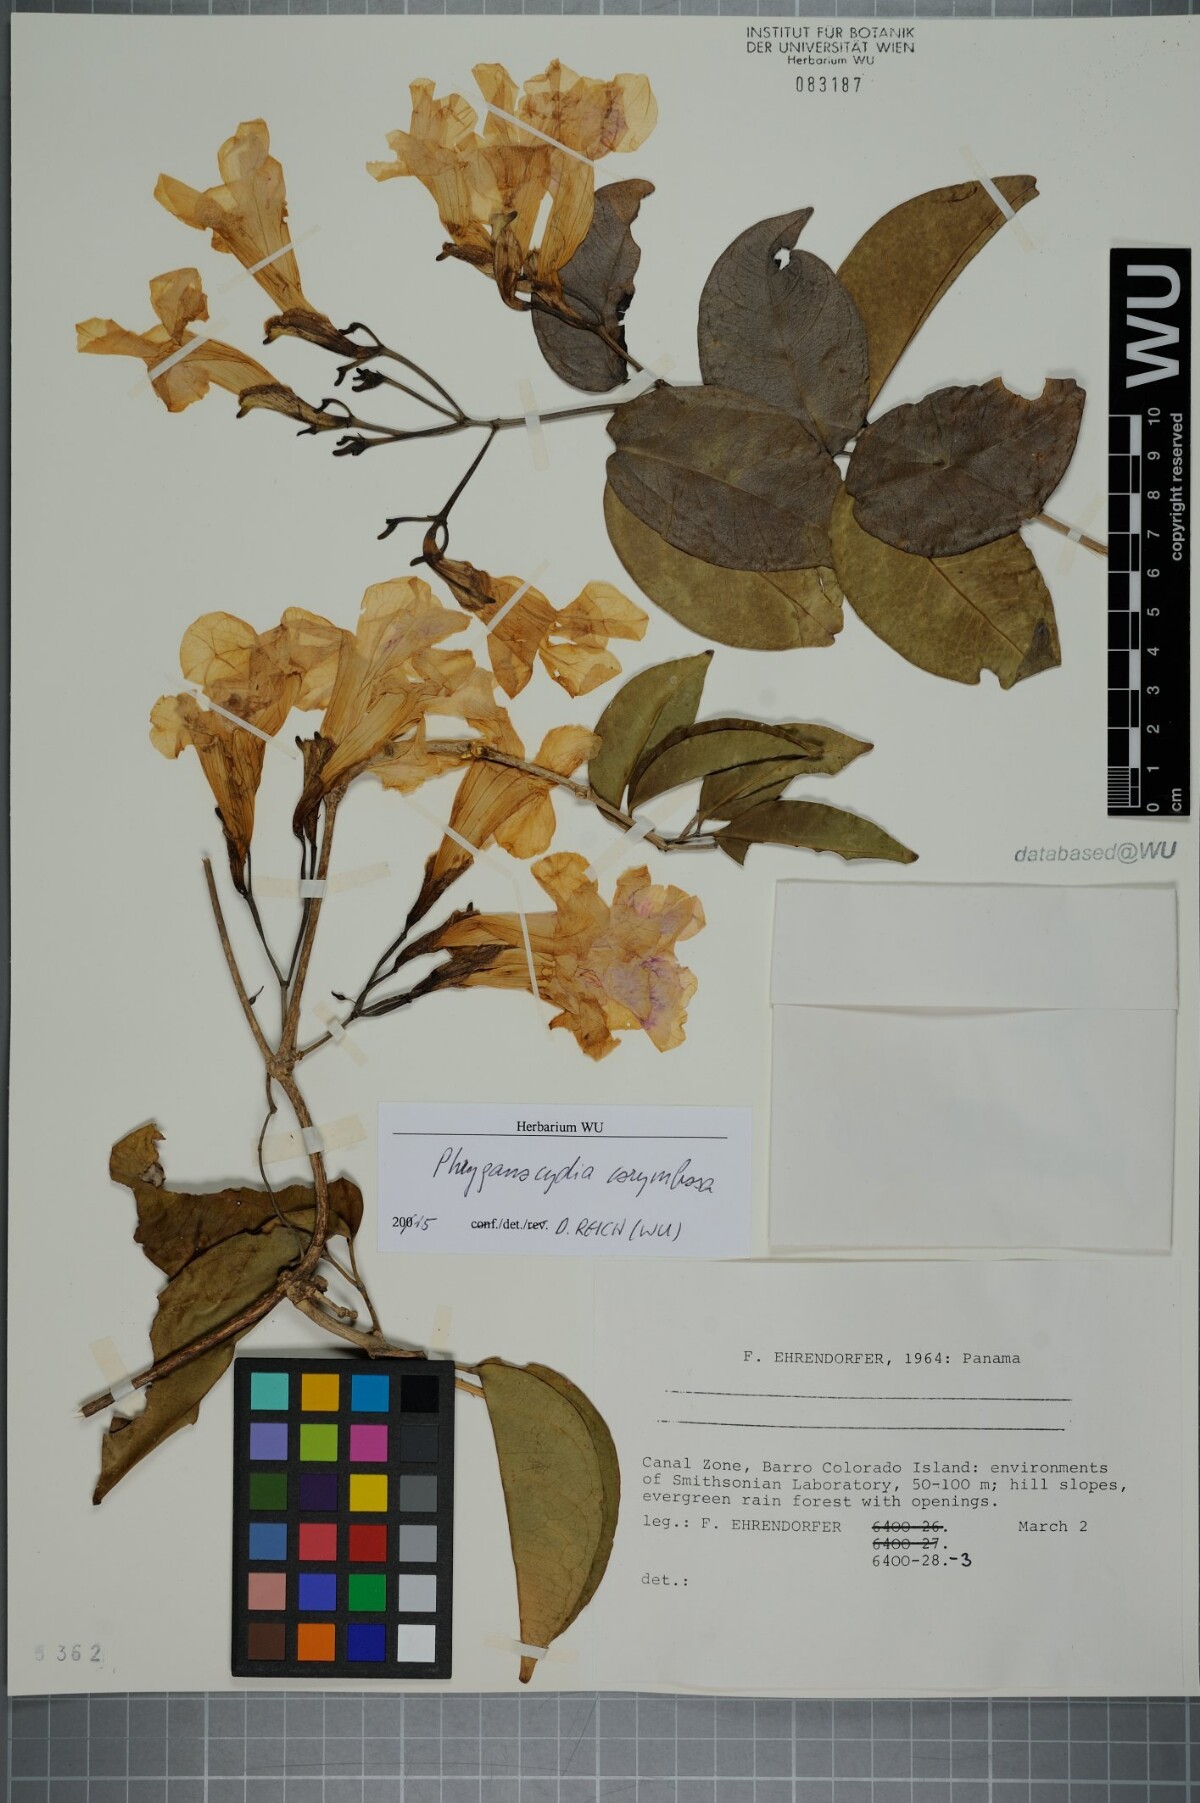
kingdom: Plantae
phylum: Tracheophyta
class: Magnoliopsida
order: Lamiales
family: Bignoniaceae
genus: Bignonia
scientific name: Bignonia corymbosa
